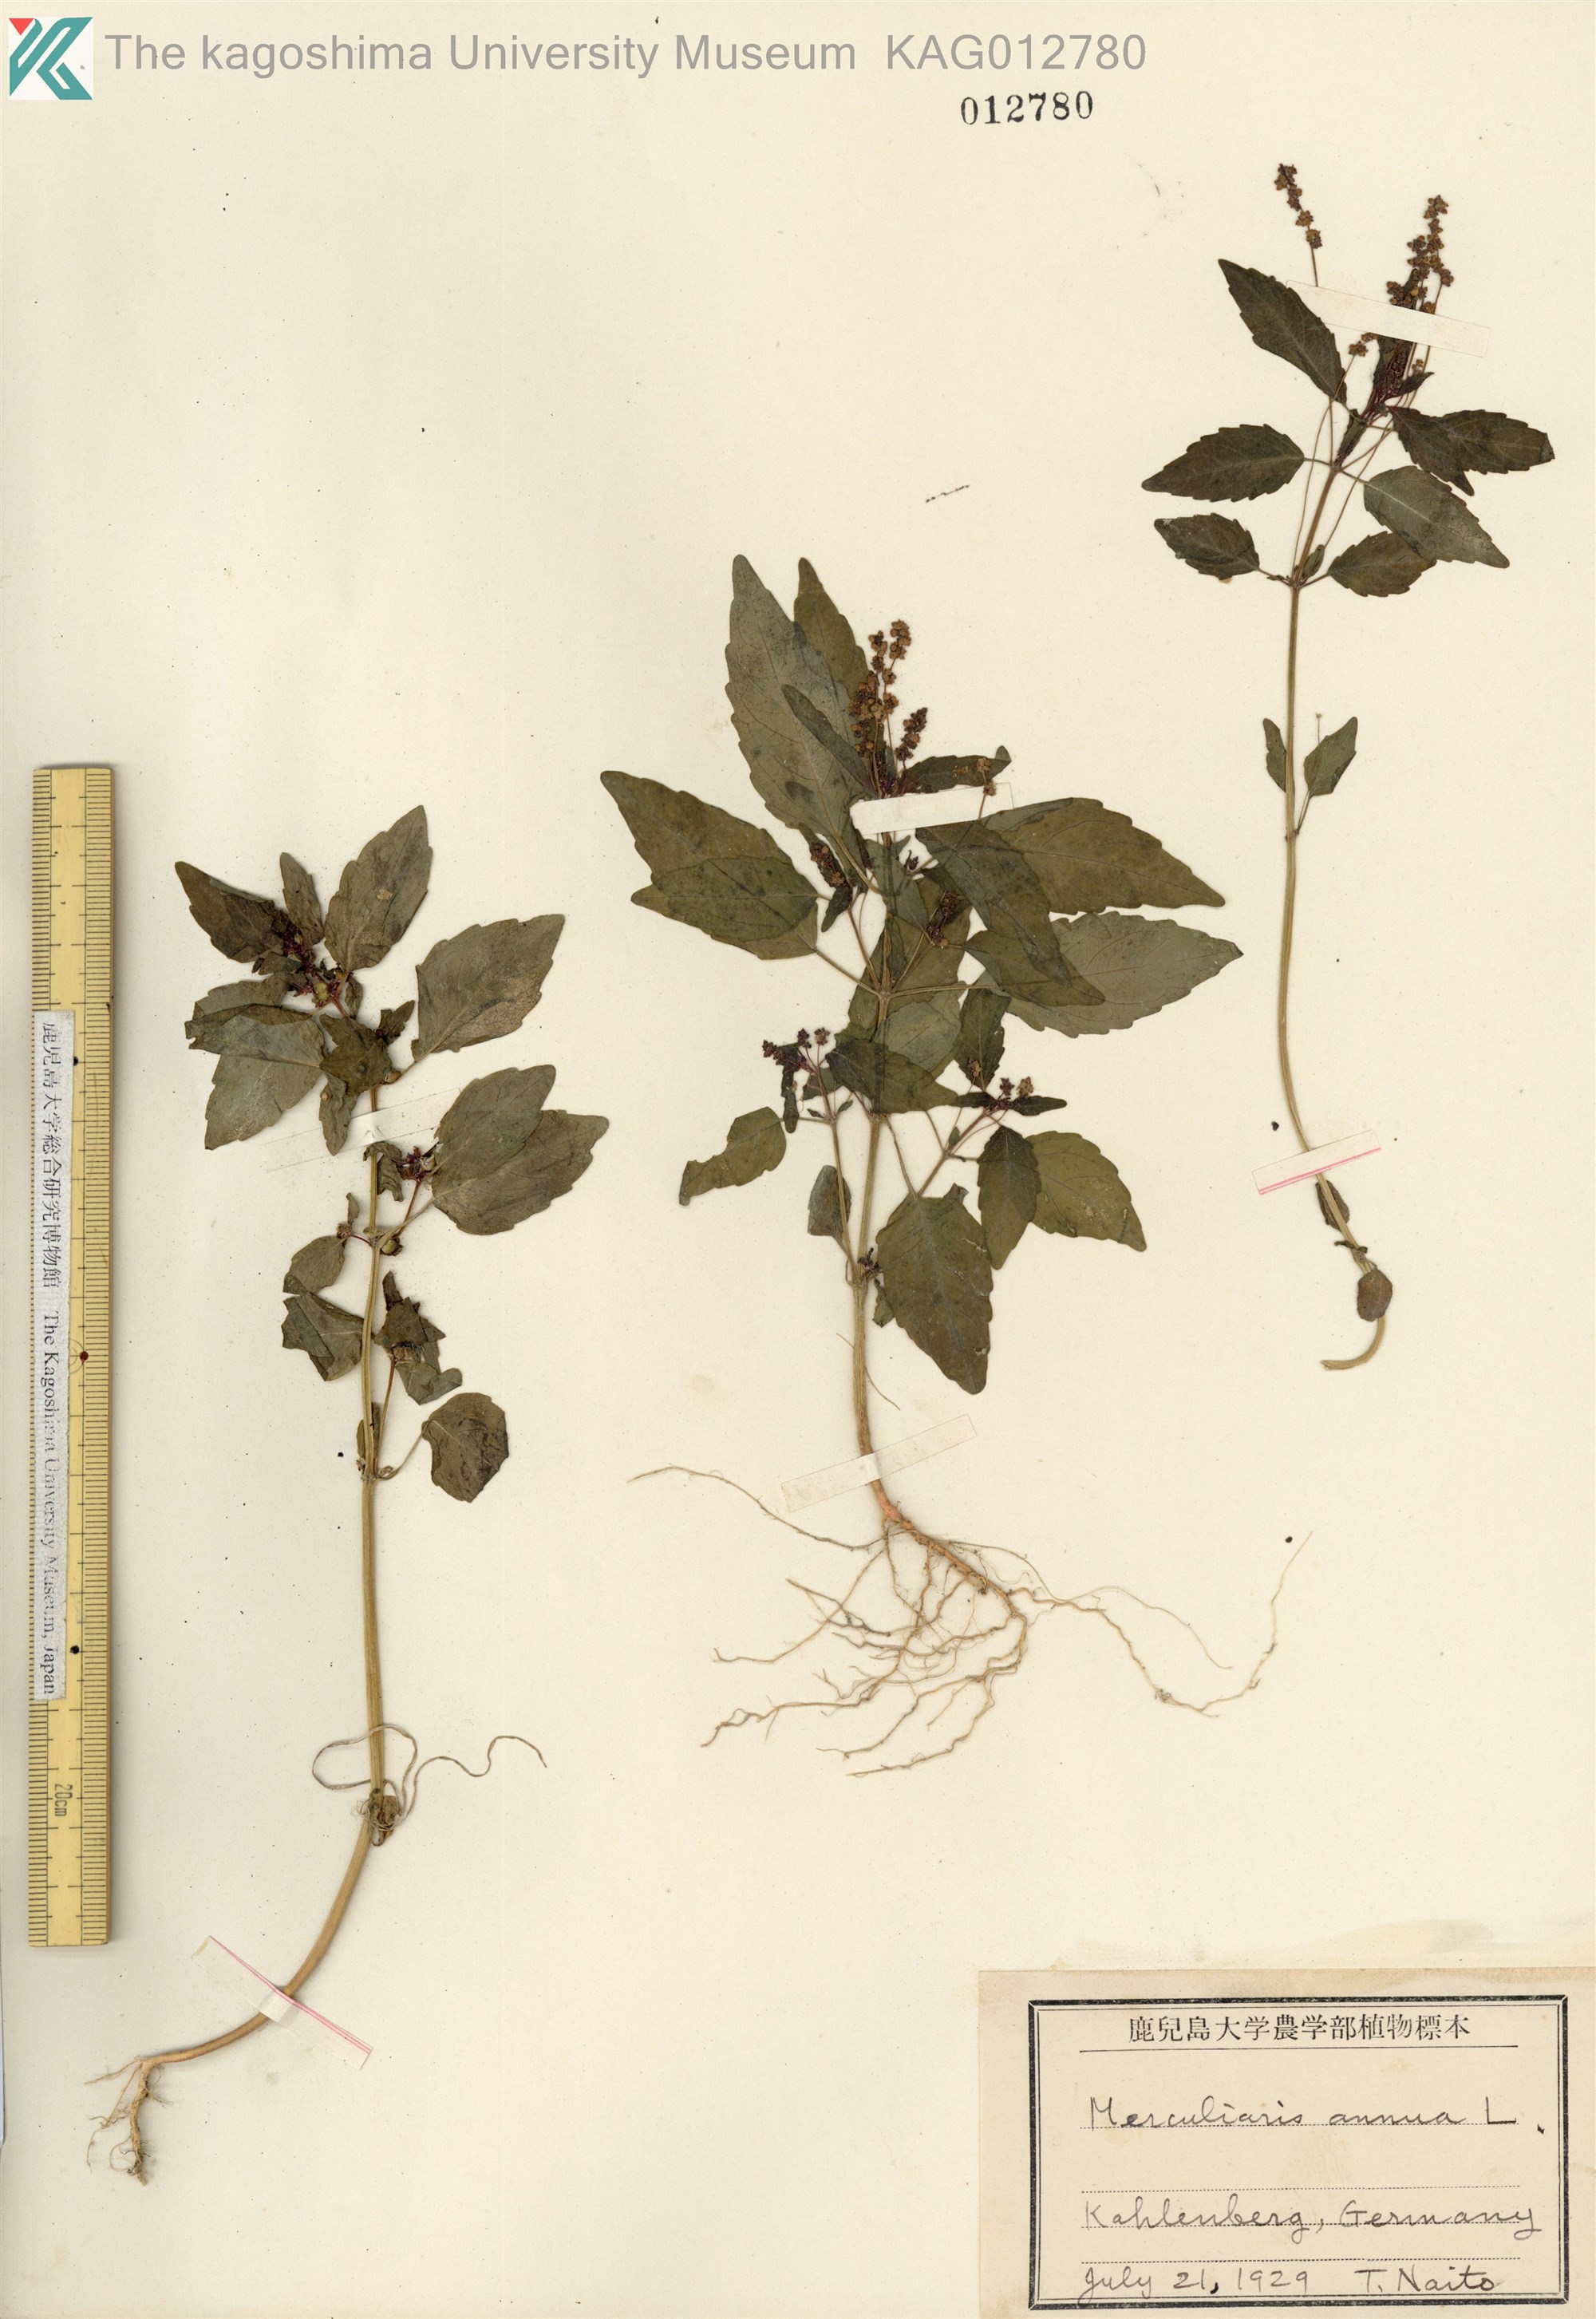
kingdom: Plantae
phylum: Tracheophyta
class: Magnoliopsida
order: Malpighiales
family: Euphorbiaceae
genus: Mercurialis
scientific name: Mercurialis annua
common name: Annual mercury
